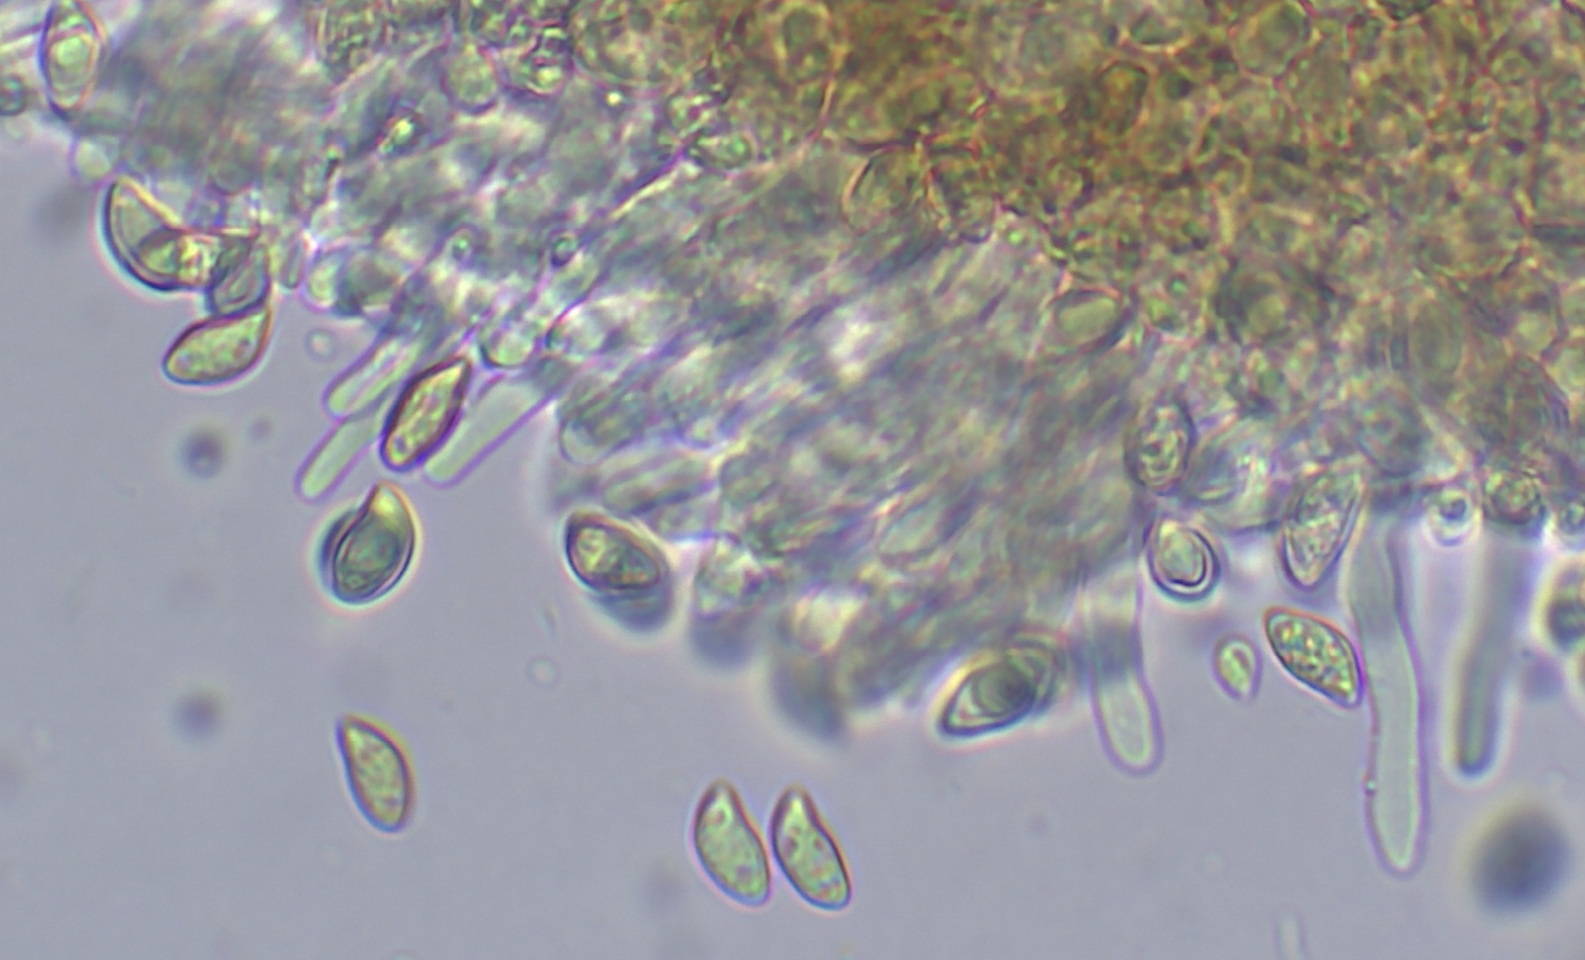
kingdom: Fungi
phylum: Basidiomycota
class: Agaricomycetes
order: Agaricales
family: Tubariaceae
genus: Flammulaster
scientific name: Flammulaster granulosus
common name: gulbrun grynskælhat
